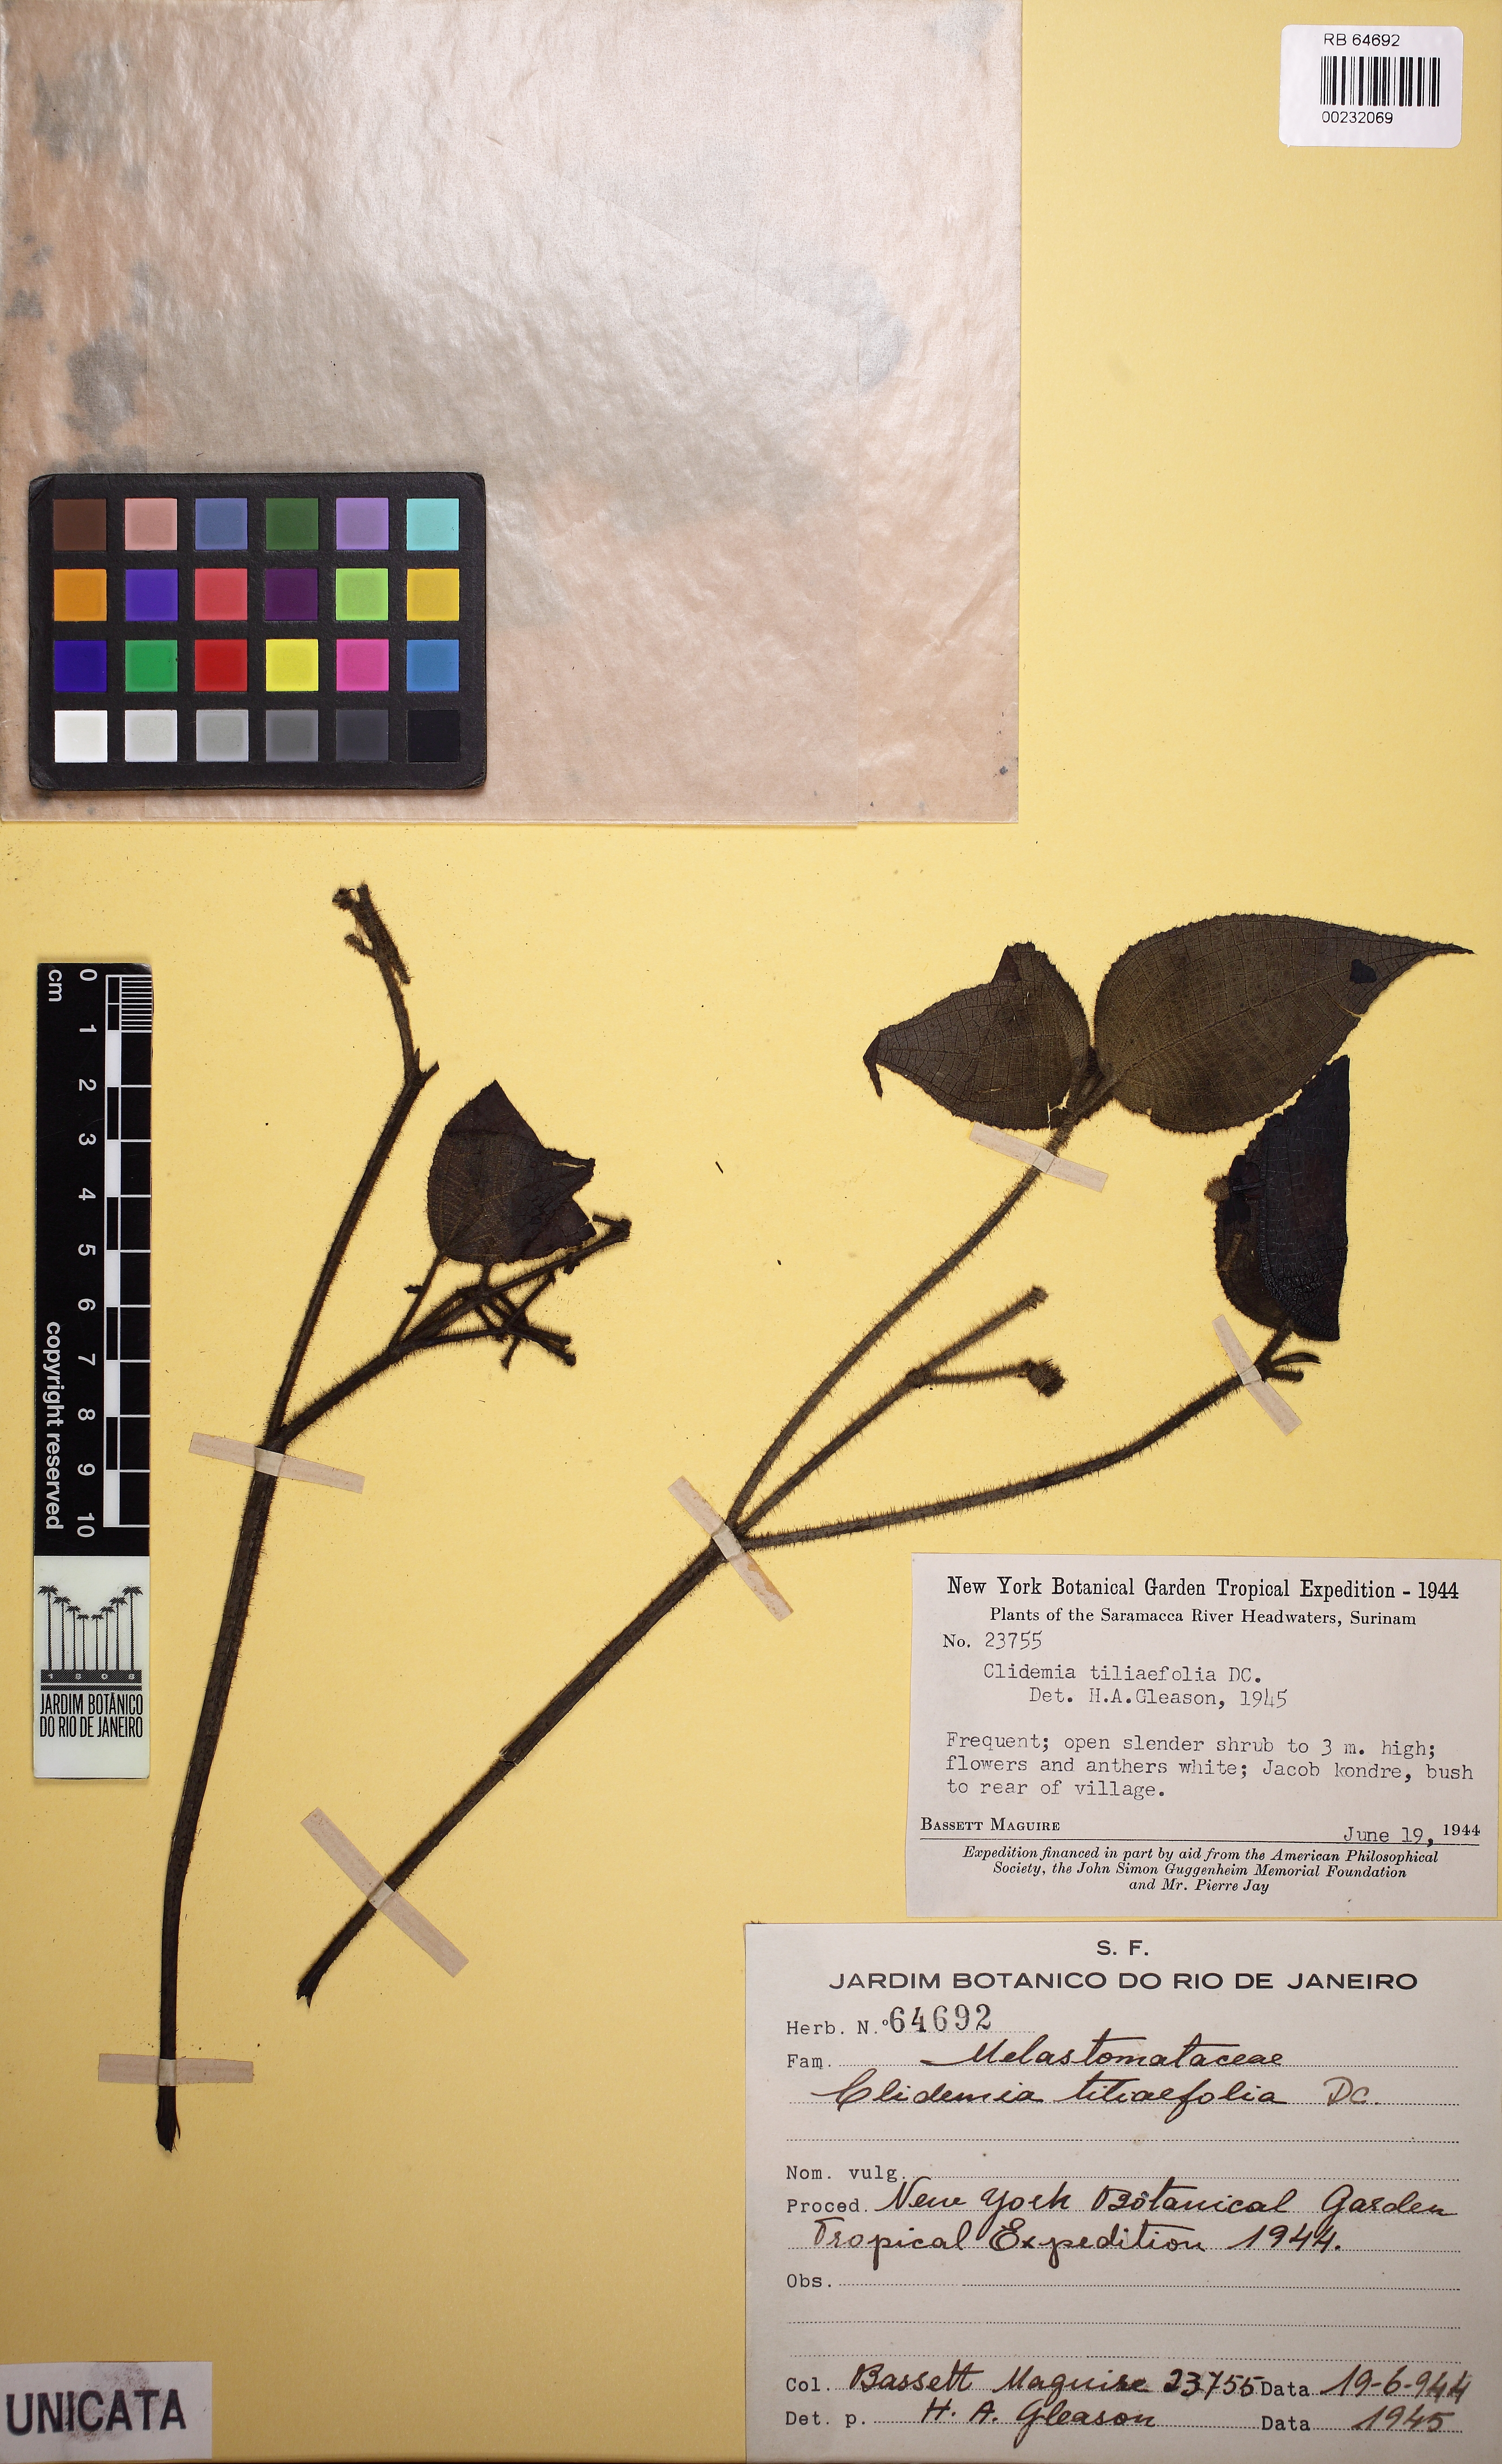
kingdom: Plantae
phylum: Tracheophyta
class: Magnoliopsida
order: Myrtales
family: Melastomataceae
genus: Miconia
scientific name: Miconia crenata
